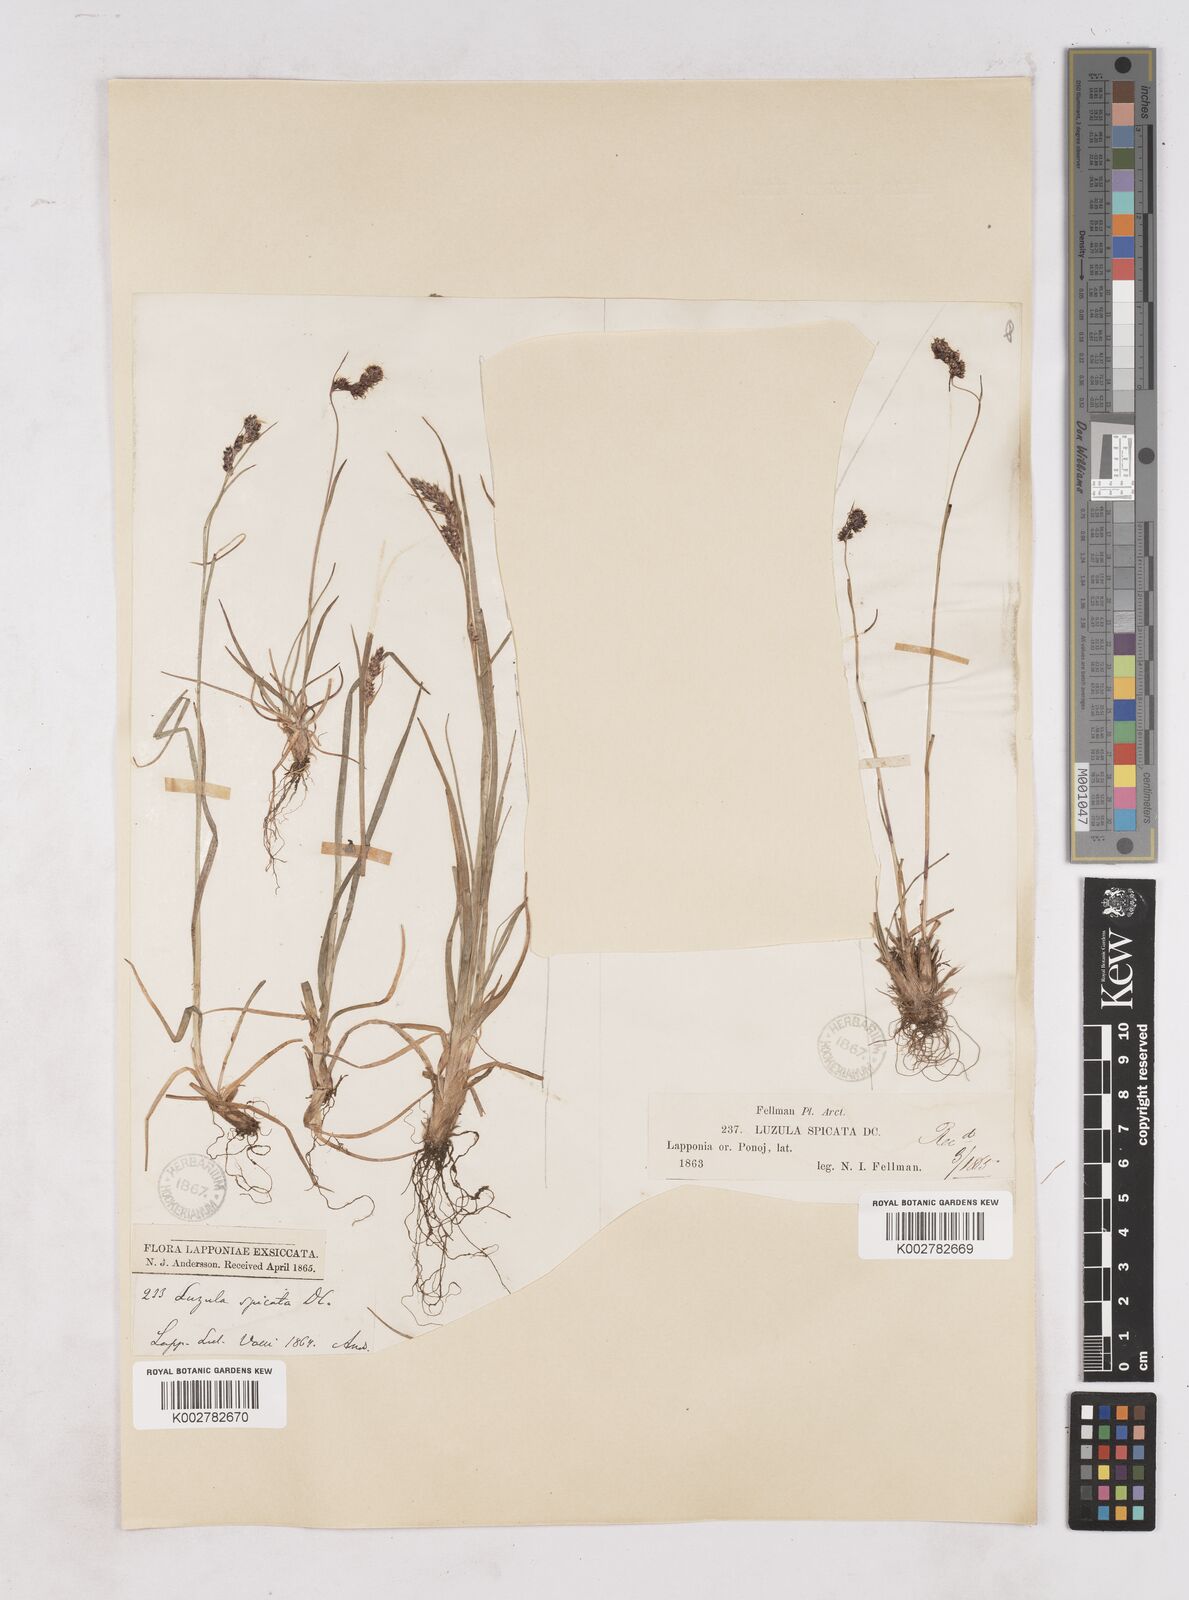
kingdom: Plantae
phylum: Tracheophyta
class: Liliopsida
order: Poales
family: Juncaceae
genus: Luzula
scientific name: Luzula spicata
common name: Spiked wood-rush
